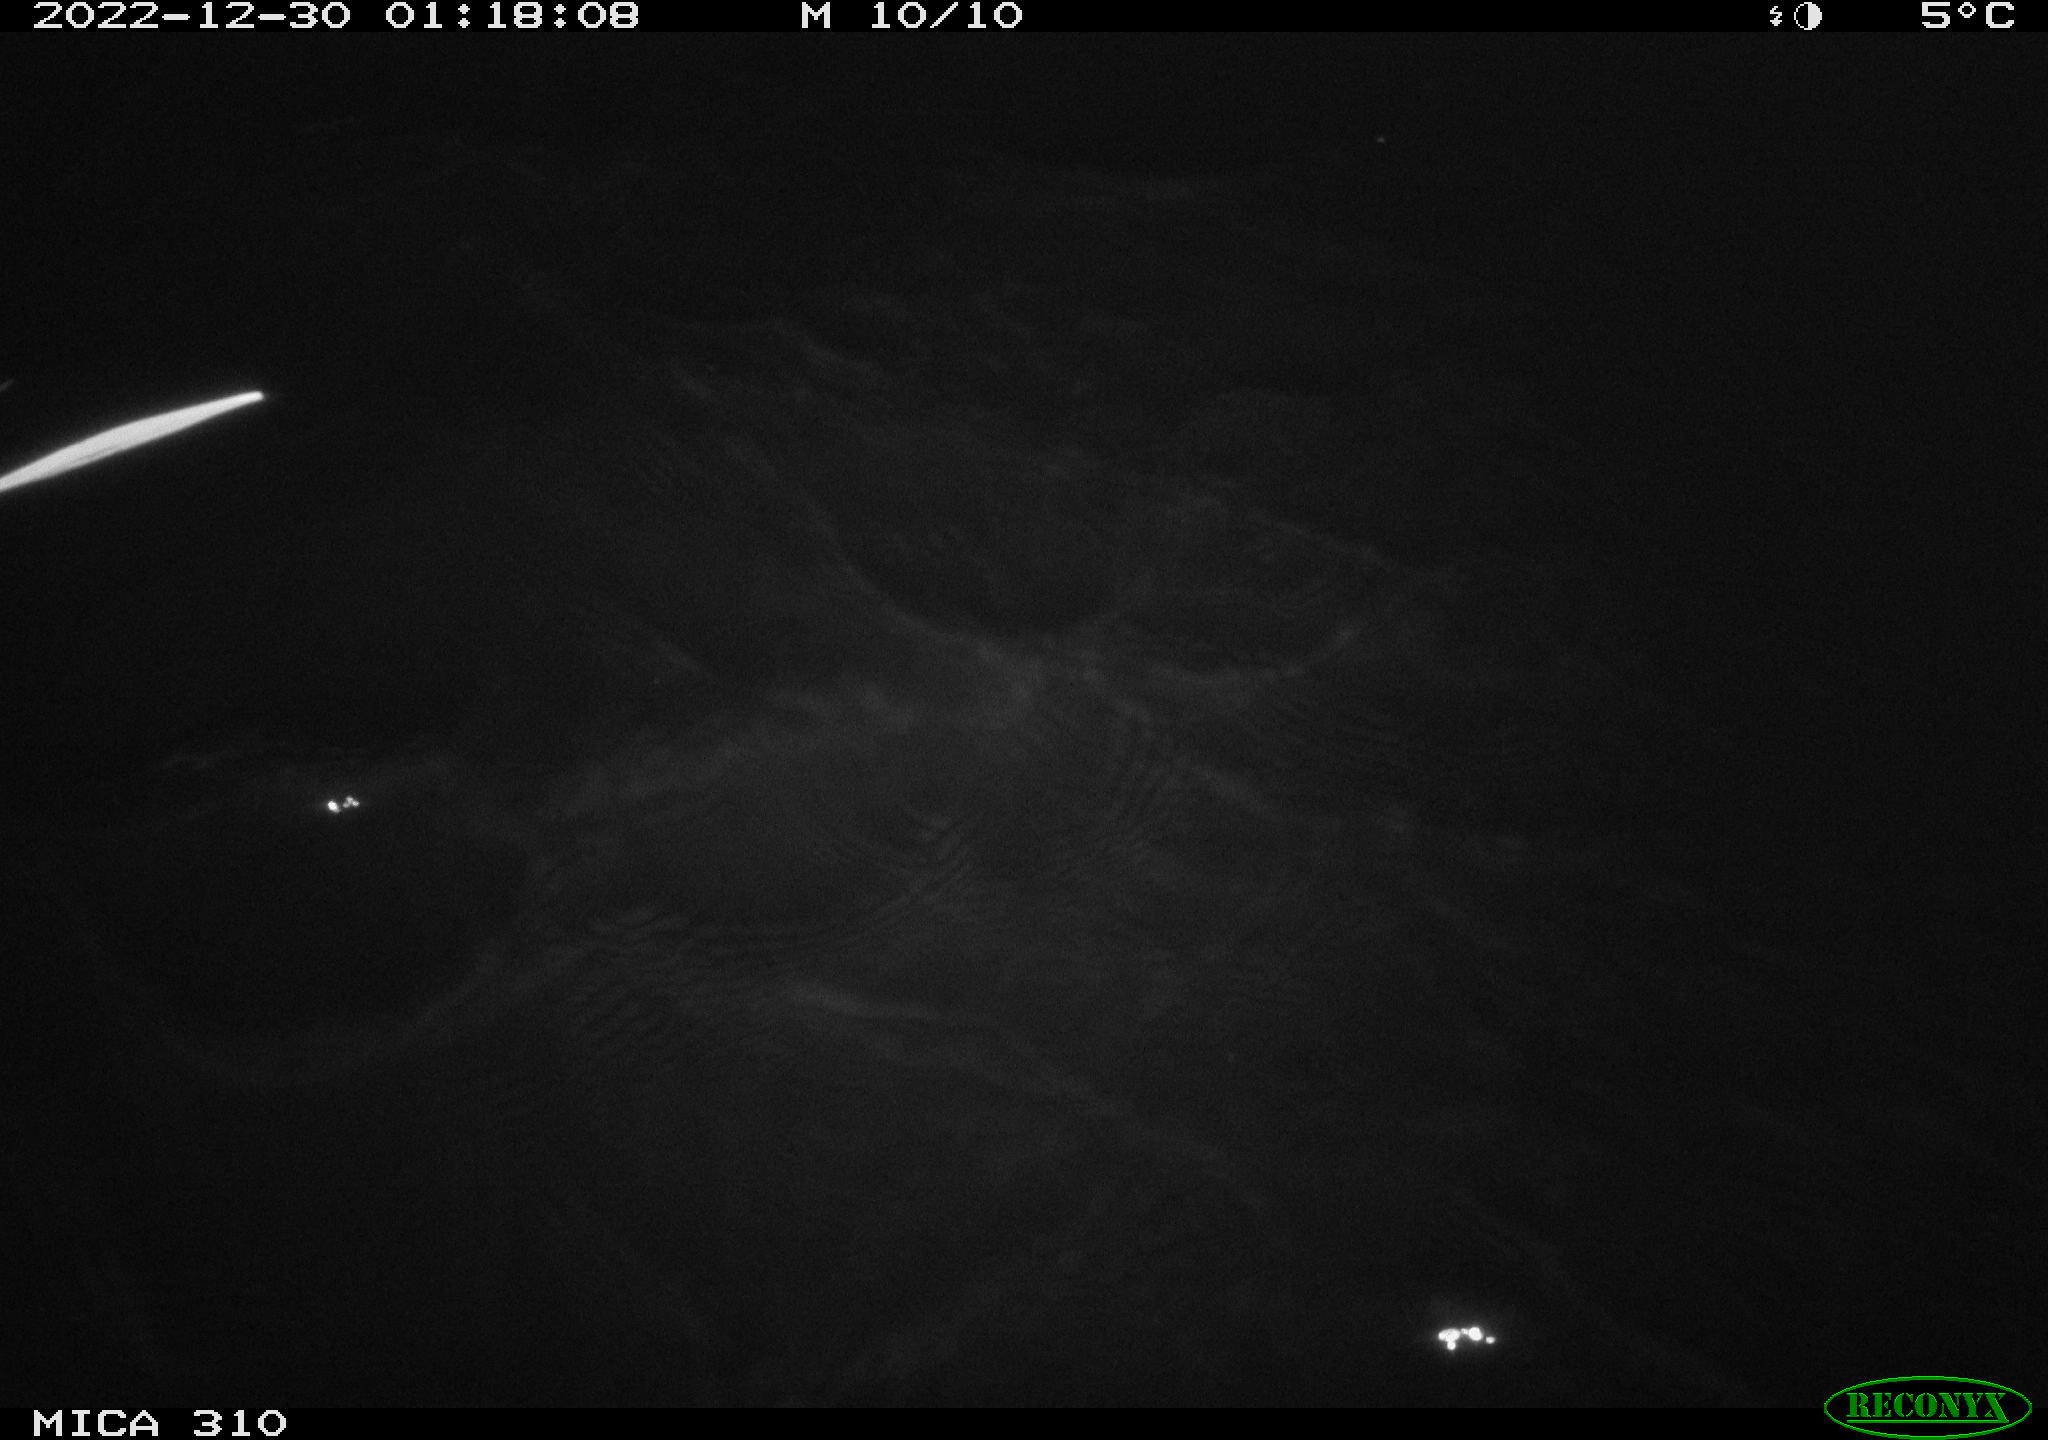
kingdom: Animalia
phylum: Chordata
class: Mammalia
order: Rodentia
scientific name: Rodentia
